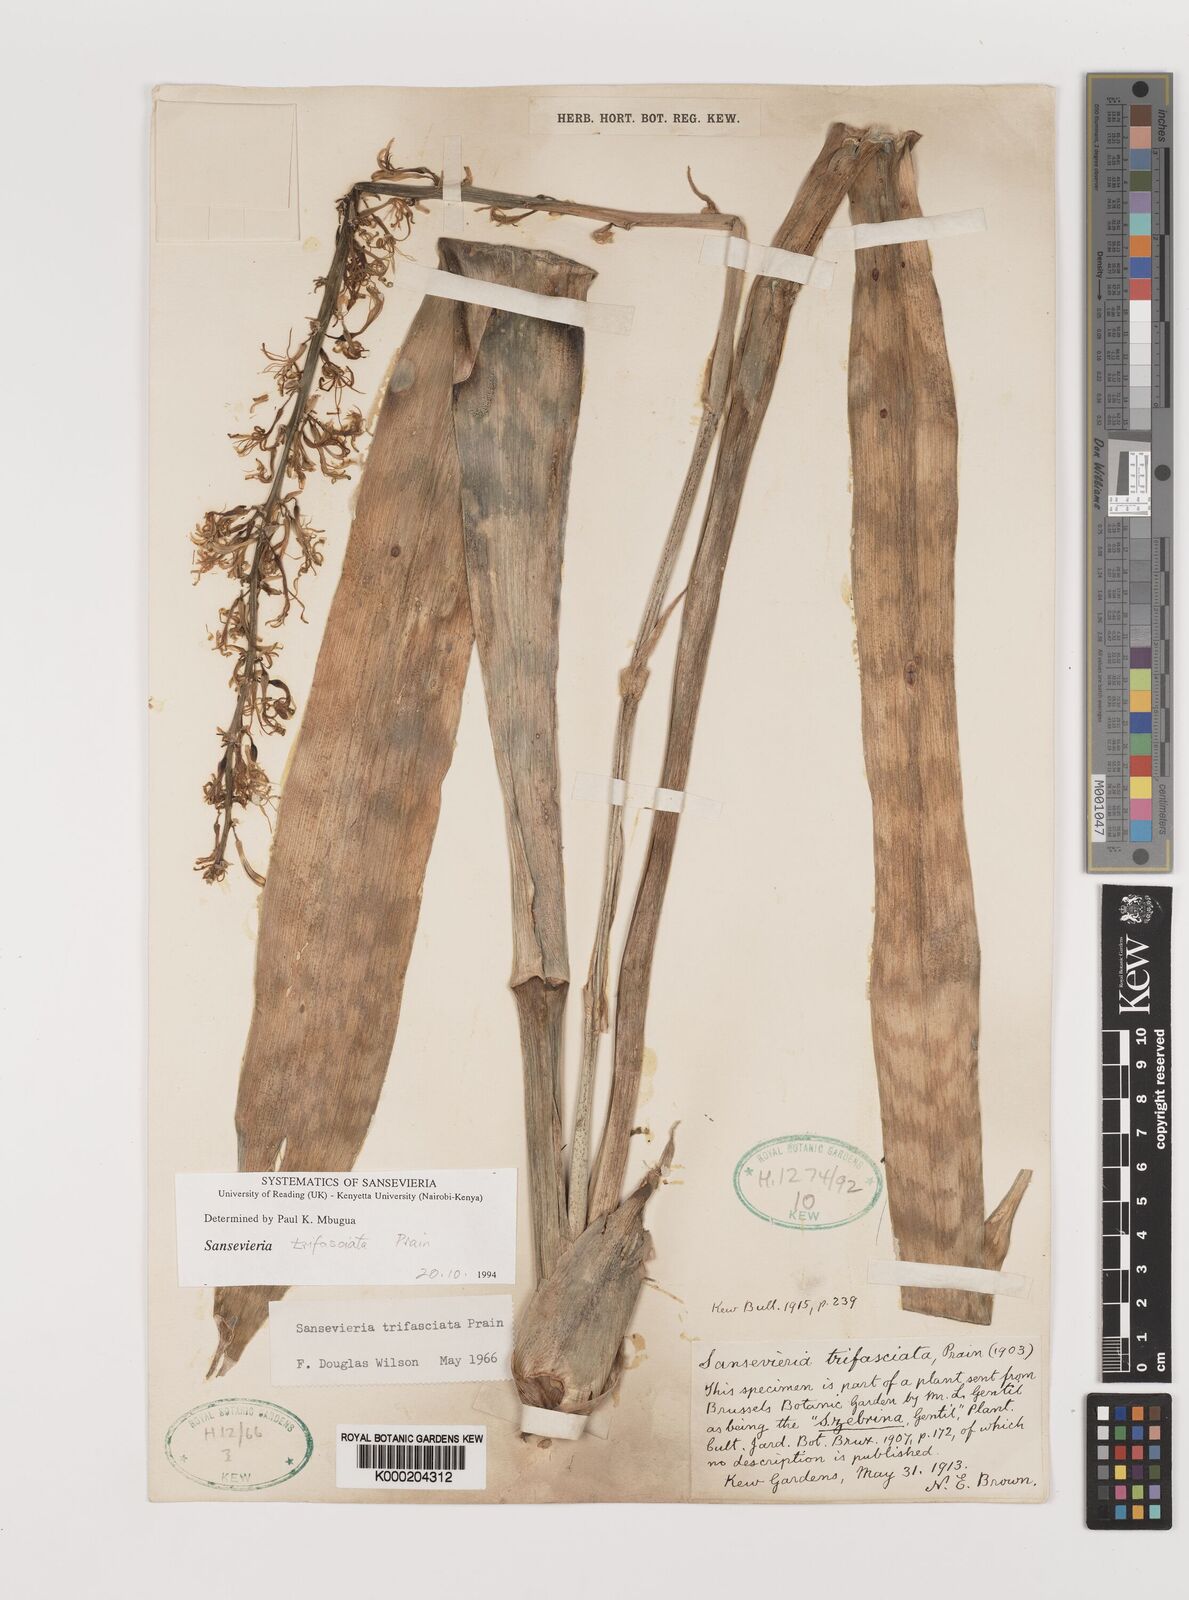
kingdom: Plantae
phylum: Tracheophyta
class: Liliopsida
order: Asparagales
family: Asparagaceae
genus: Dracaena
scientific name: Dracaena trifasciata
